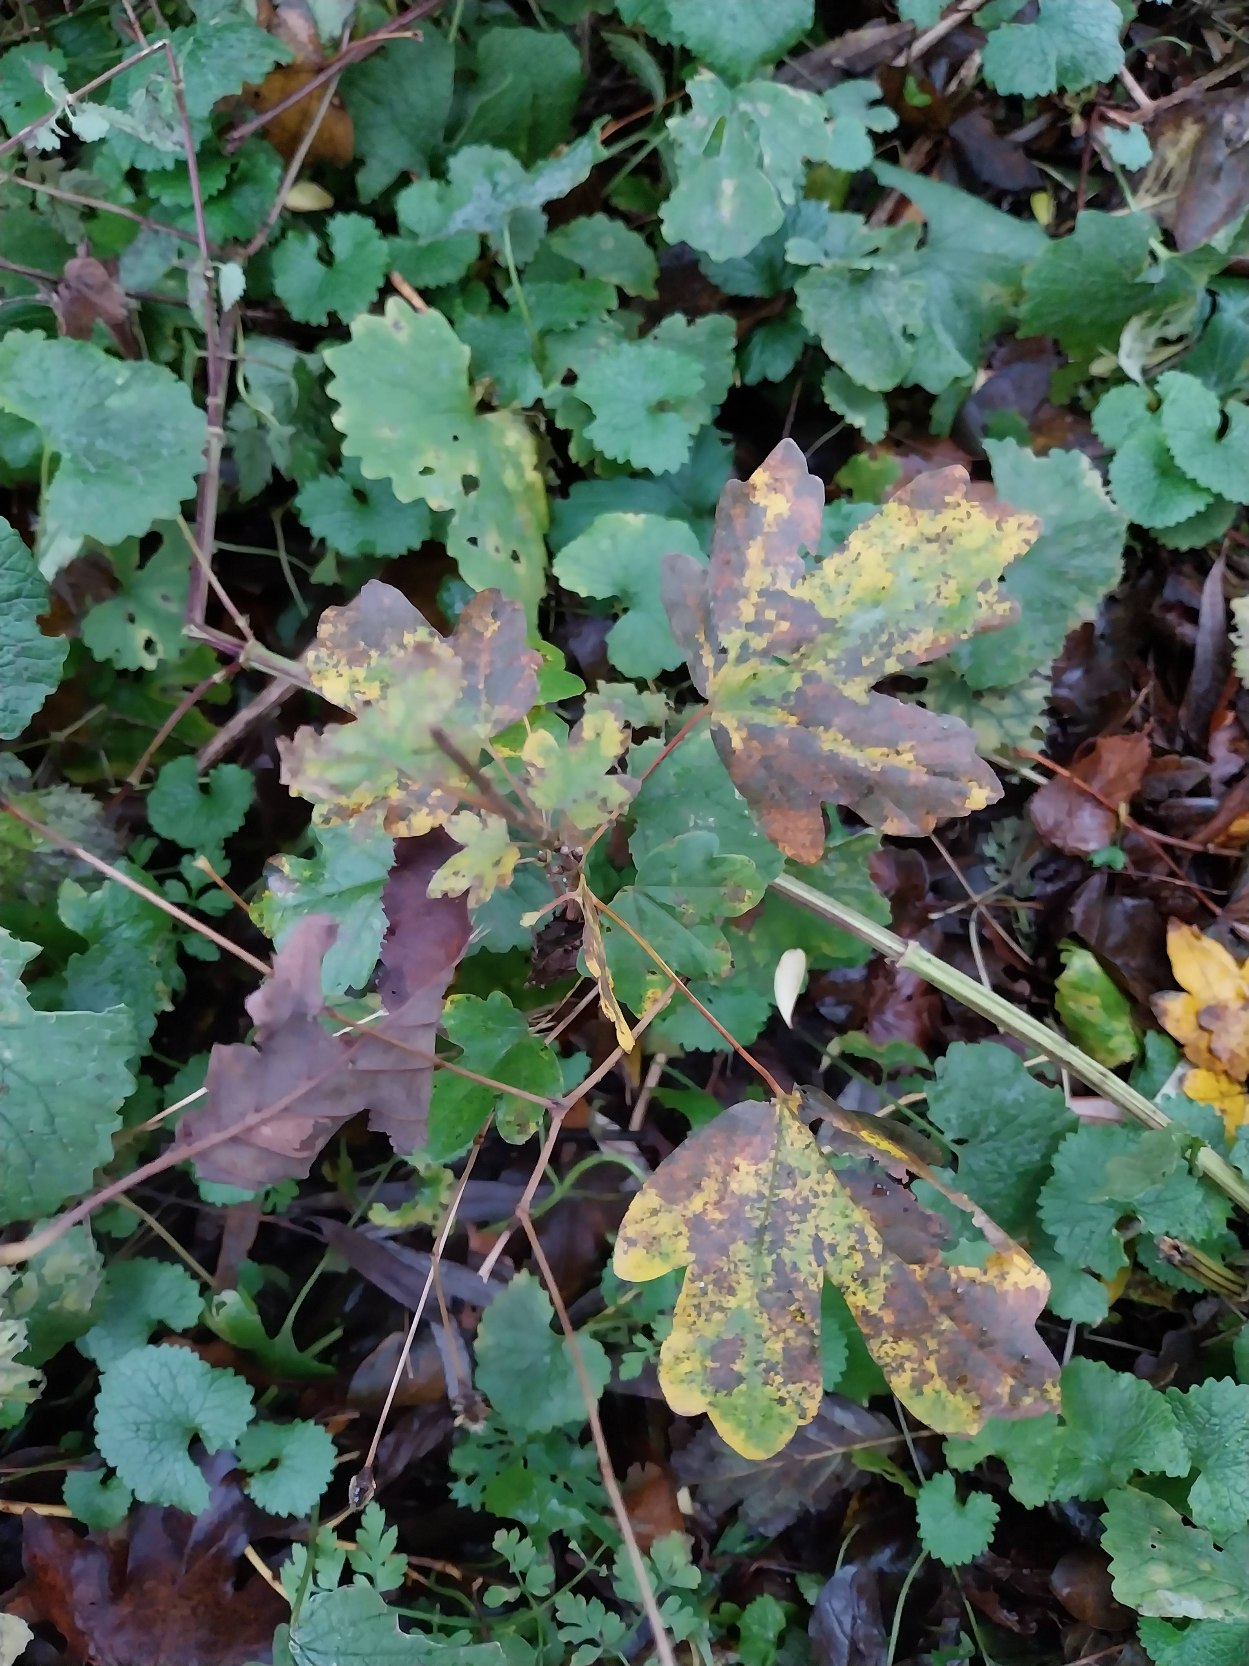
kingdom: Plantae
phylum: Tracheophyta
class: Magnoliopsida
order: Sapindales
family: Sapindaceae
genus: Acer
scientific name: Acer campestre
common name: Navr
